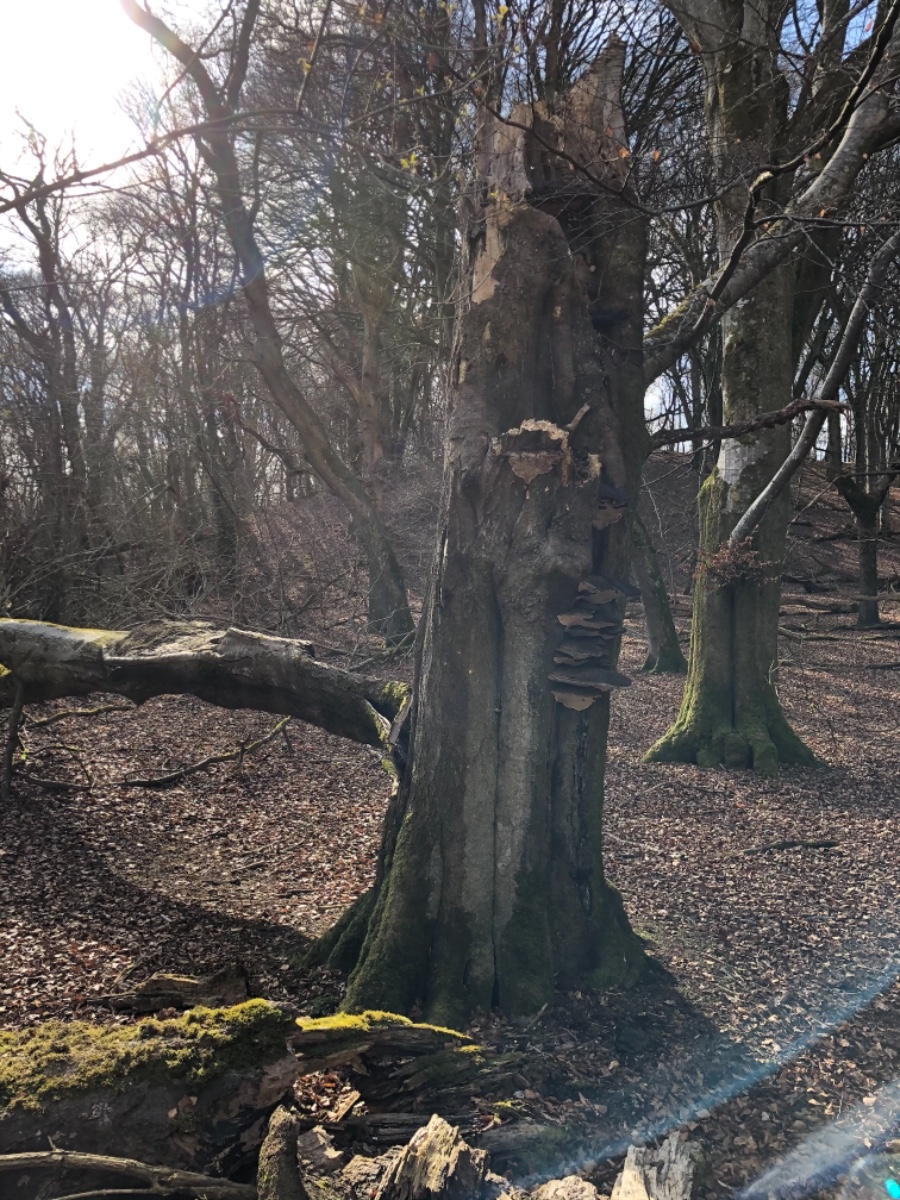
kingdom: Fungi
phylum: Basidiomycota
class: Agaricomycetes
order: Polyporales
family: Polyporaceae
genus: Ganoderma
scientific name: Ganoderma adspersum
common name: grov lakporesvamp
